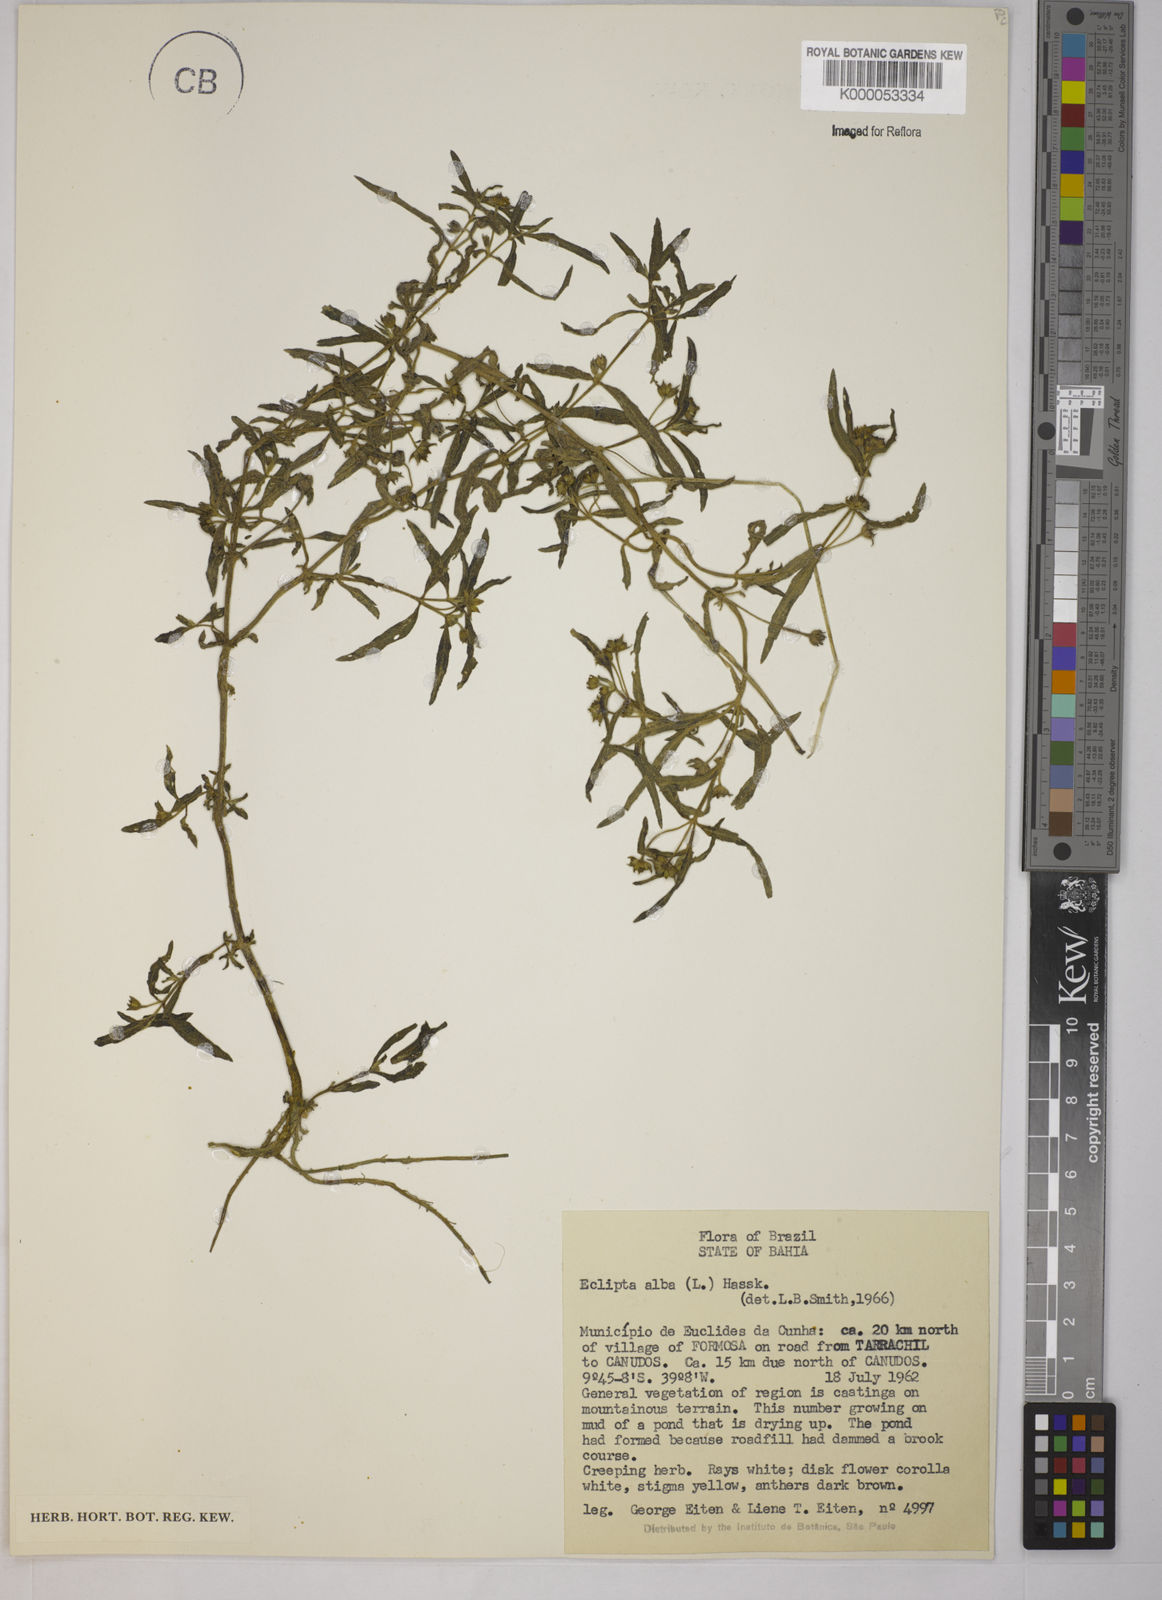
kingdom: Plantae
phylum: Tracheophyta
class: Magnoliopsida
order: Asterales
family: Asteraceae
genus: Eclipta
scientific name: Eclipta prostrata
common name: False daisy
